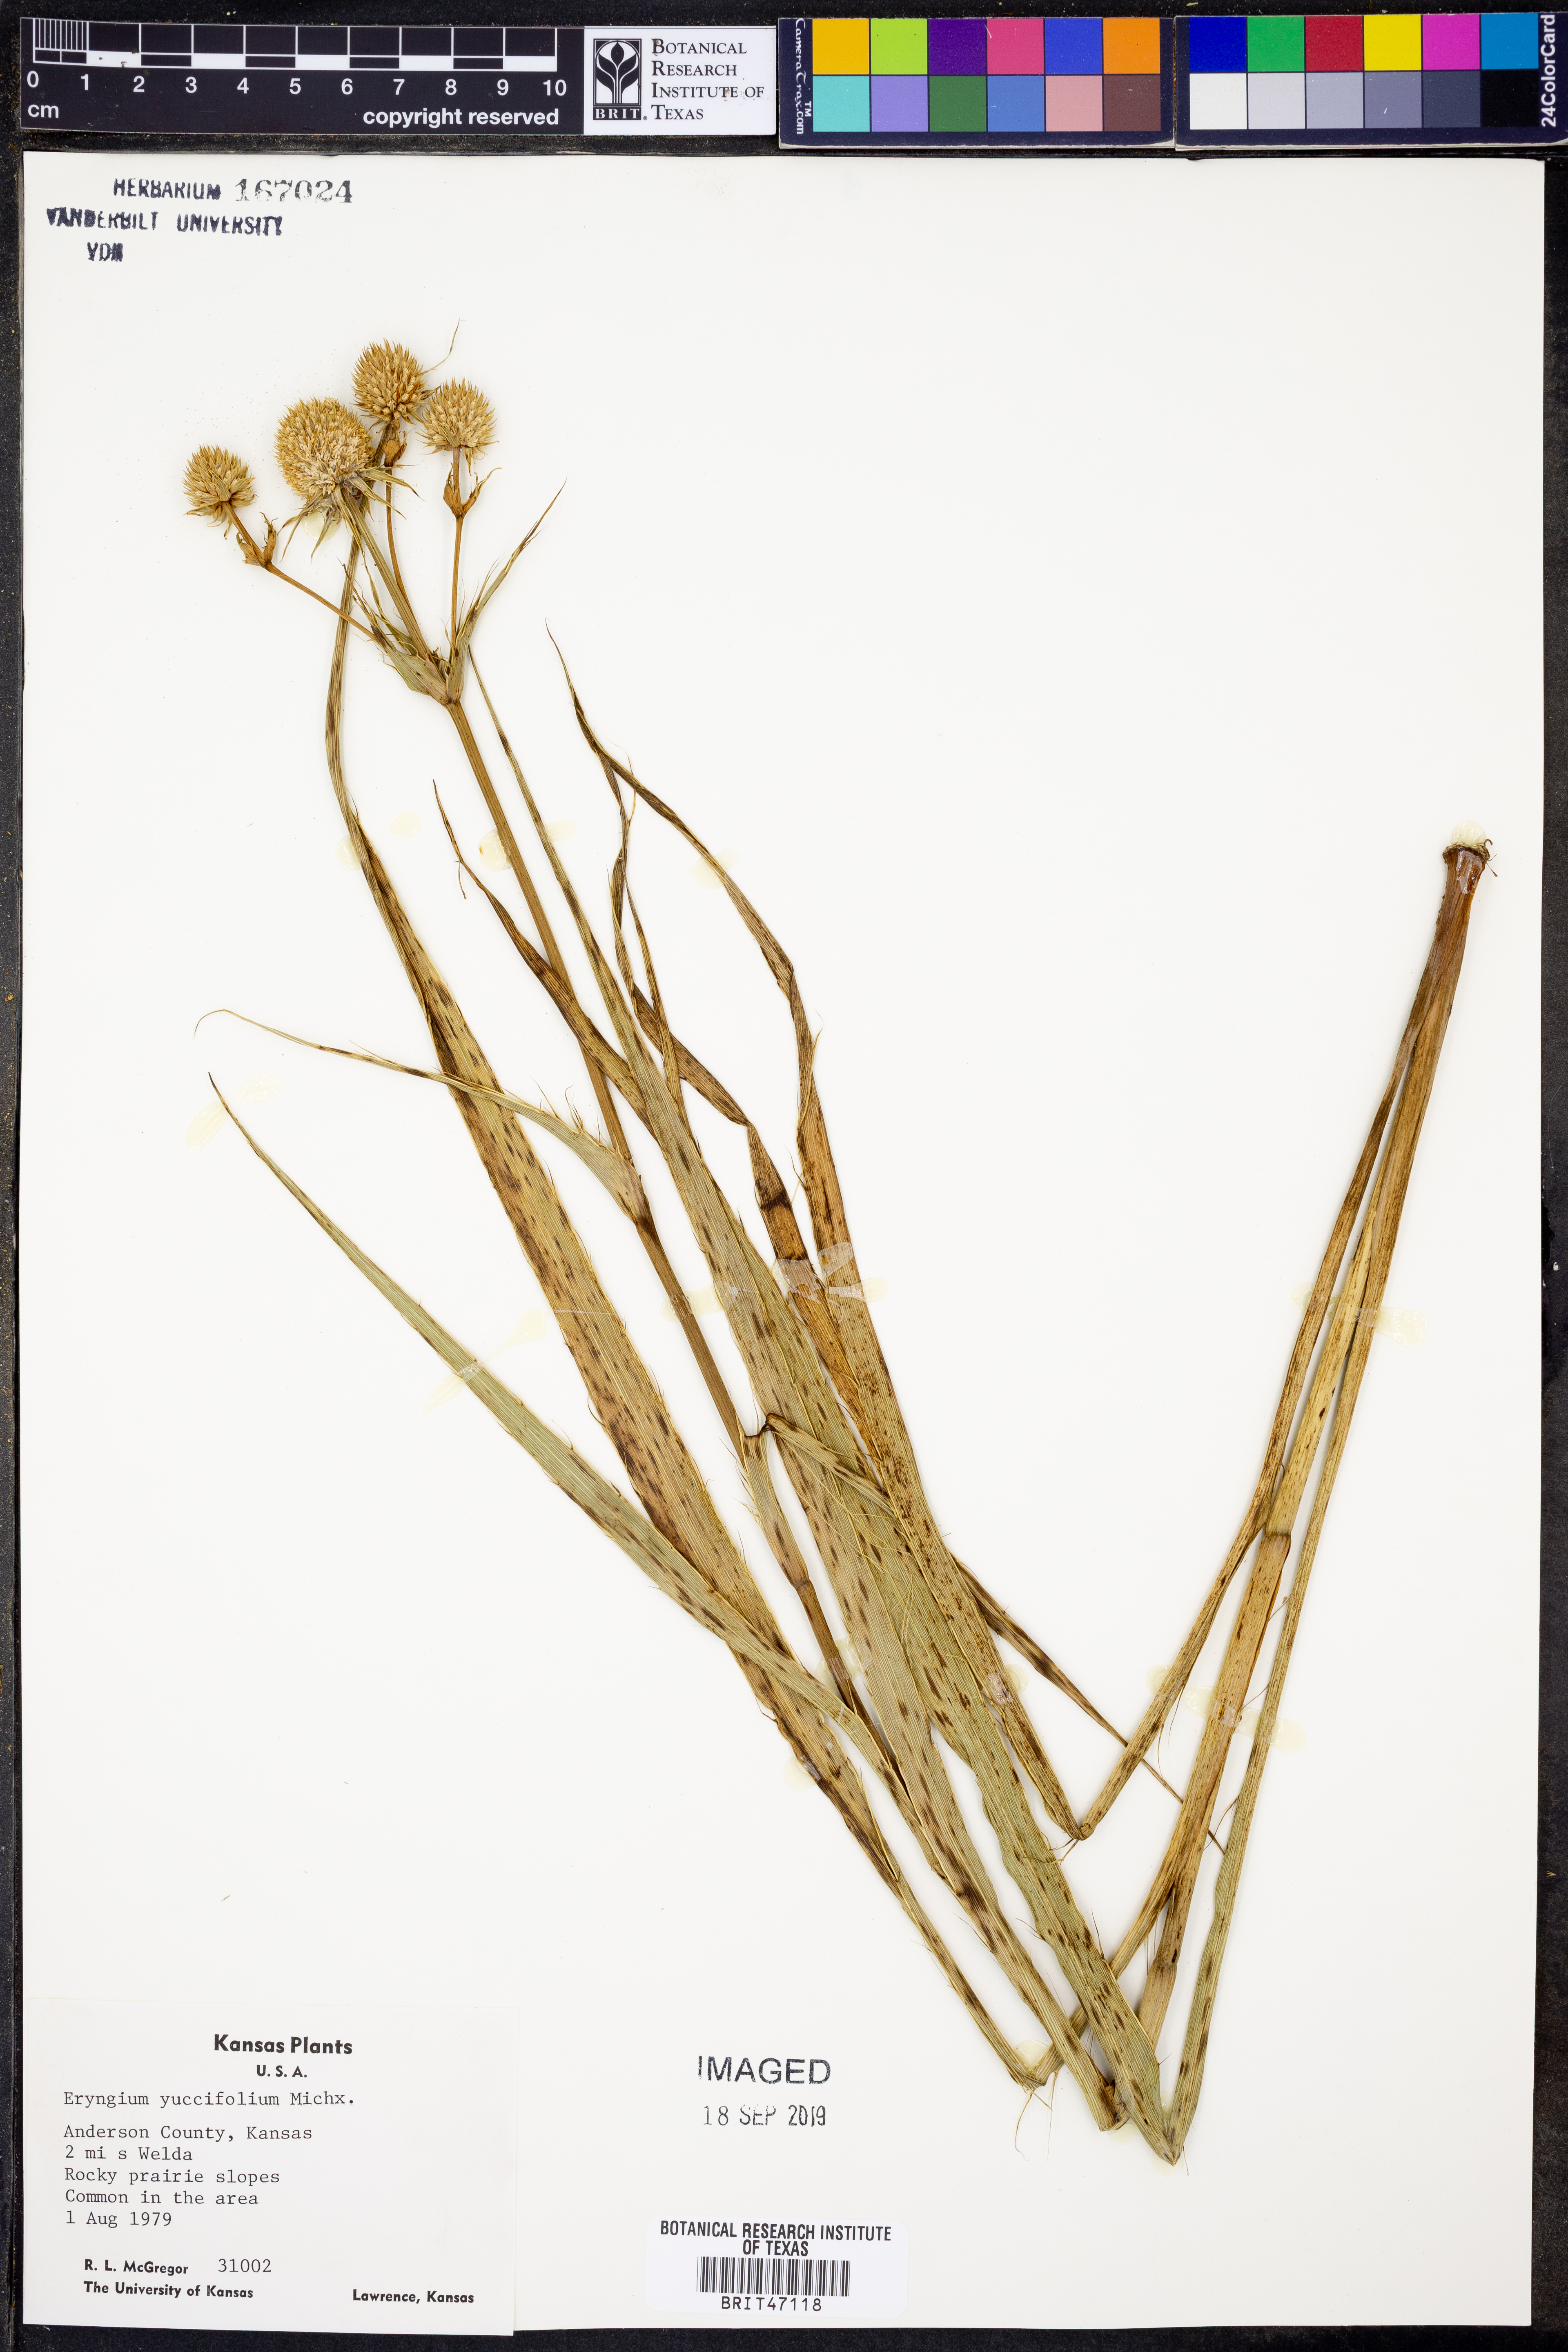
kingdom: Plantae
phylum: Tracheophyta
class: Magnoliopsida
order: Apiales
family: Apiaceae
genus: Eryngium
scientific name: Eryngium yuccifolium
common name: Button eryngo
